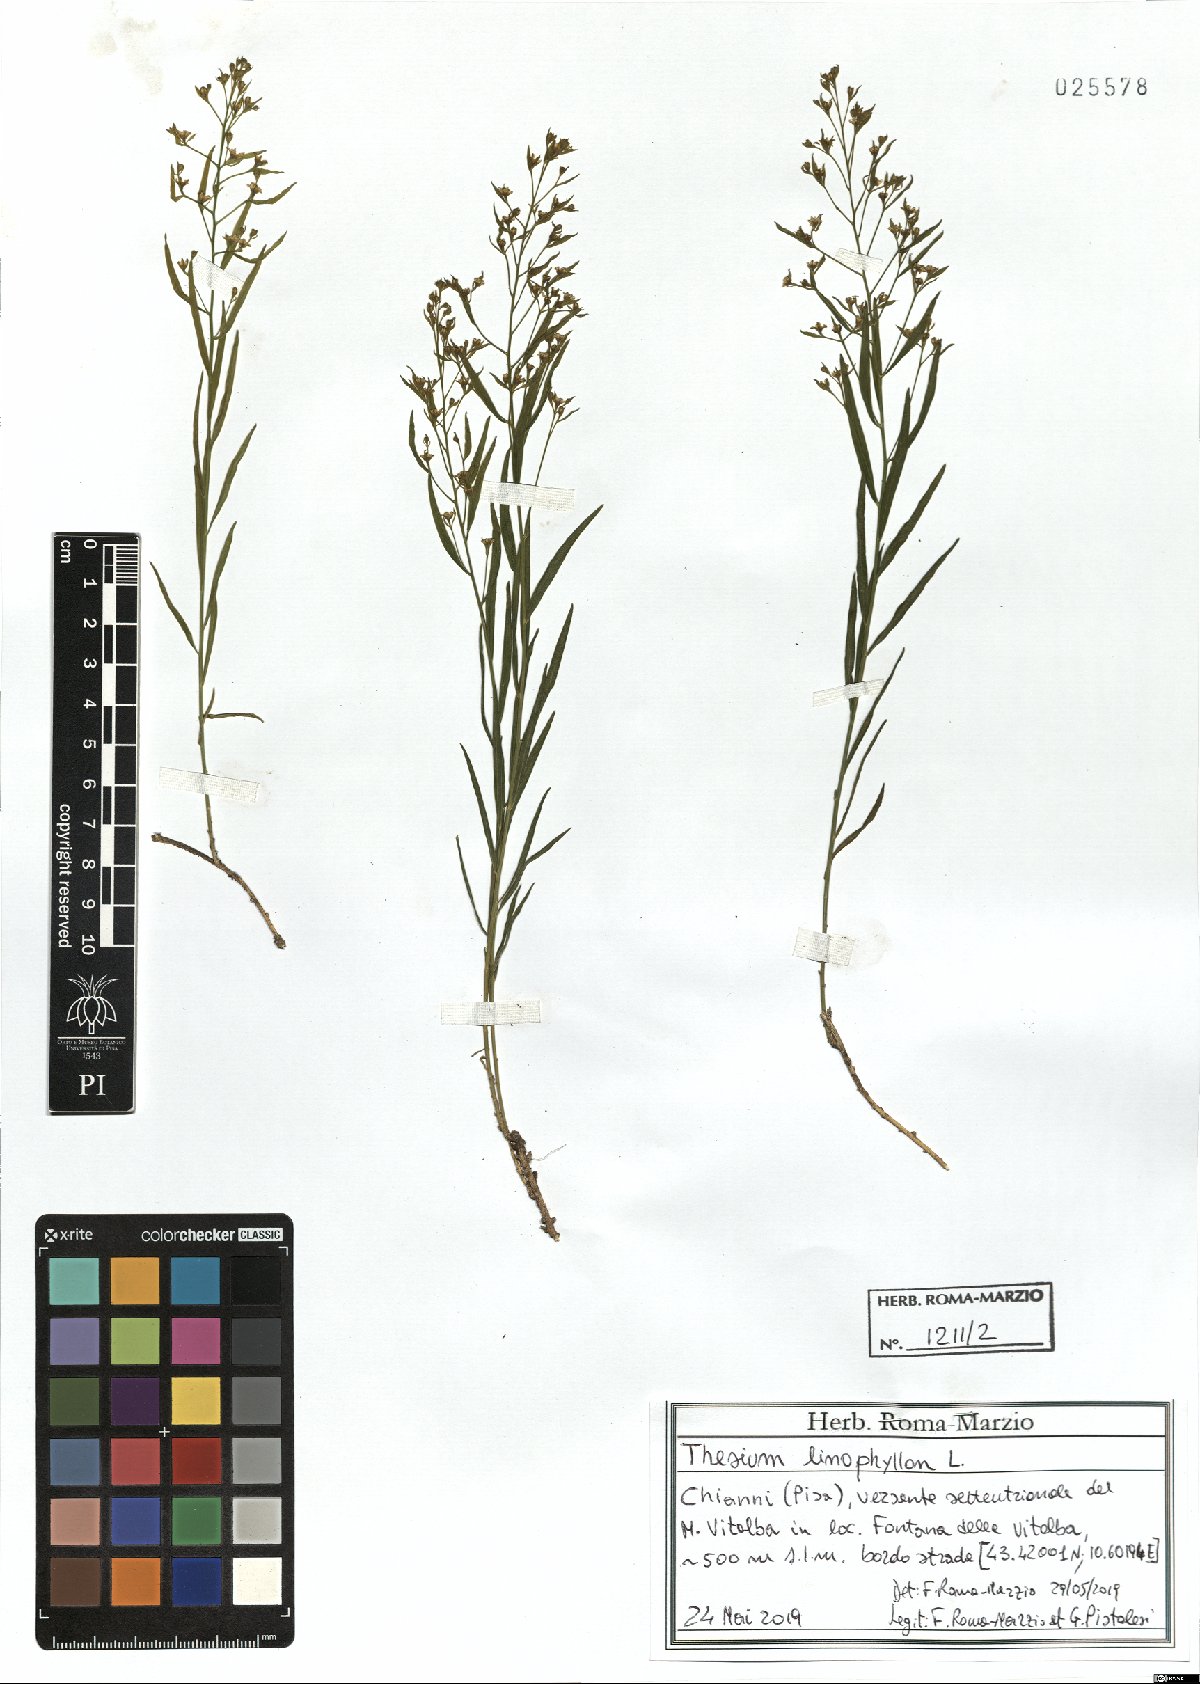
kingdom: Plantae
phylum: Tracheophyta
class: Magnoliopsida
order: Santalales
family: Thesiaceae
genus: Thesium
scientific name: Thesium linophyllon
